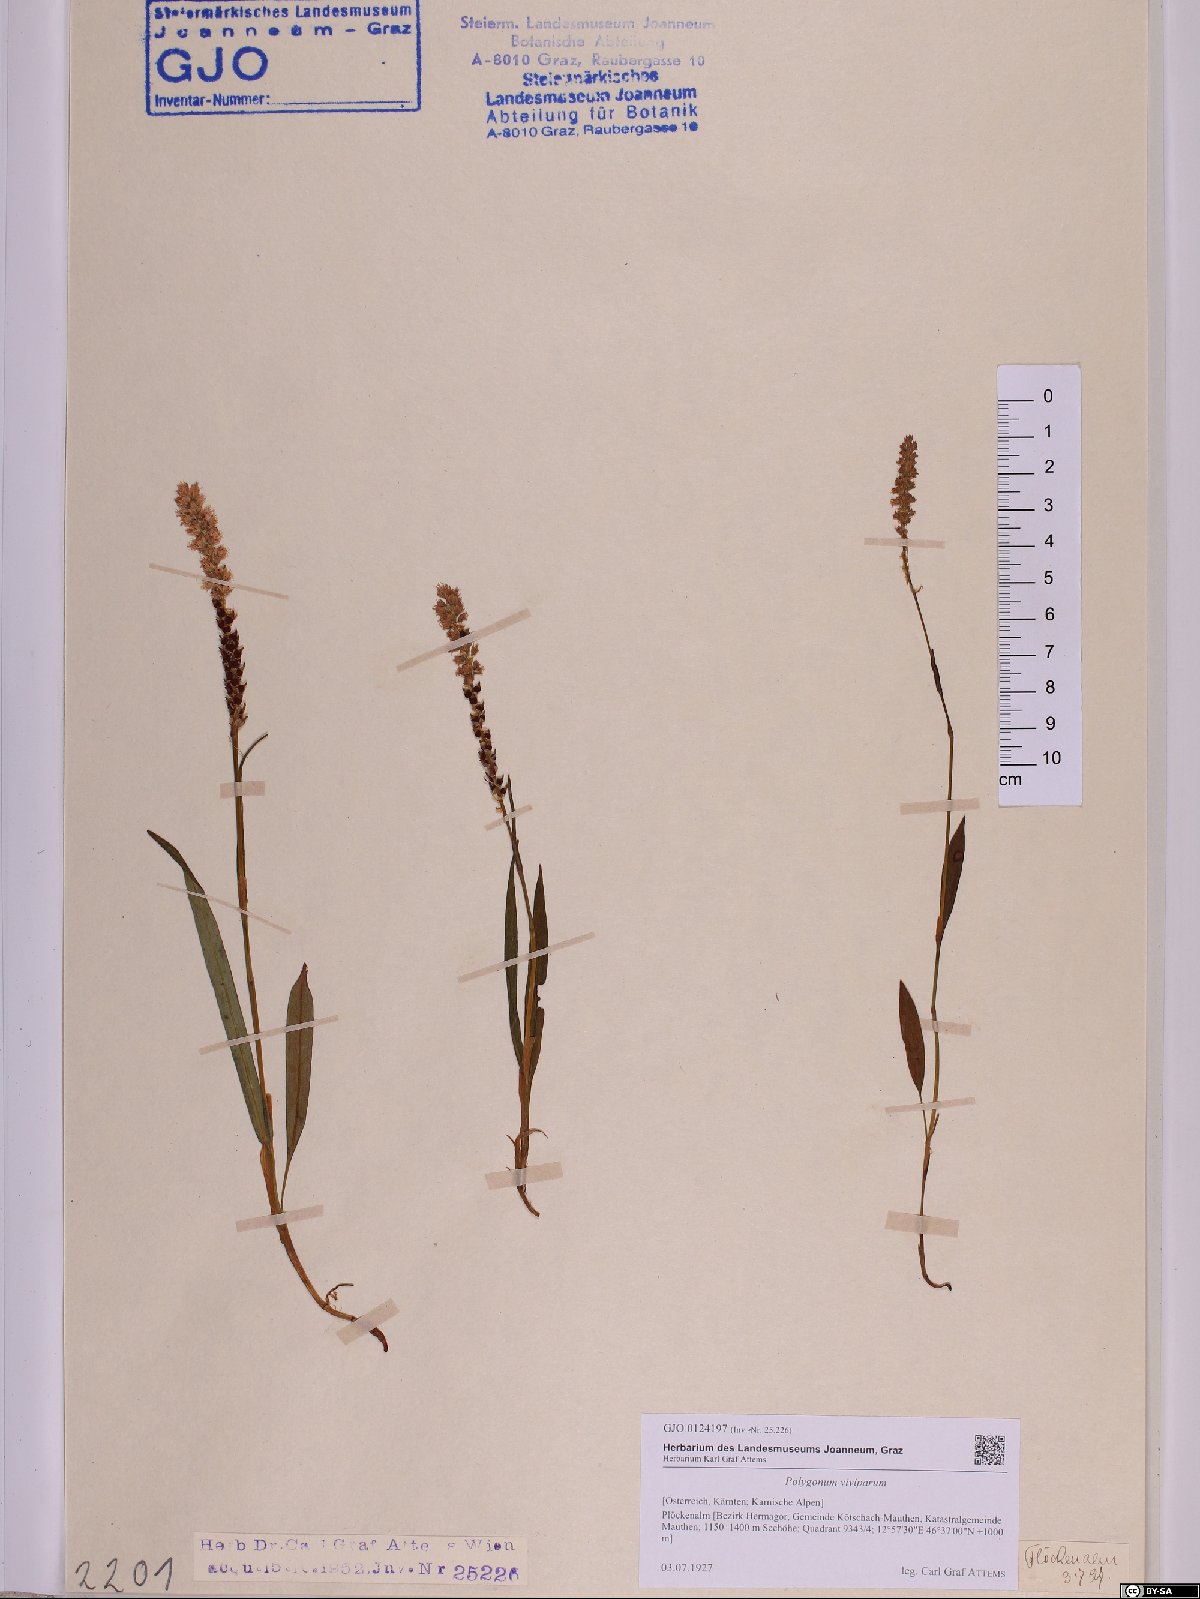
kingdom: Plantae
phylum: Tracheophyta
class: Magnoliopsida
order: Caryophyllales
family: Polygonaceae
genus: Bistorta
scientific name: Bistorta vivipara
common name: Alpine bistort
